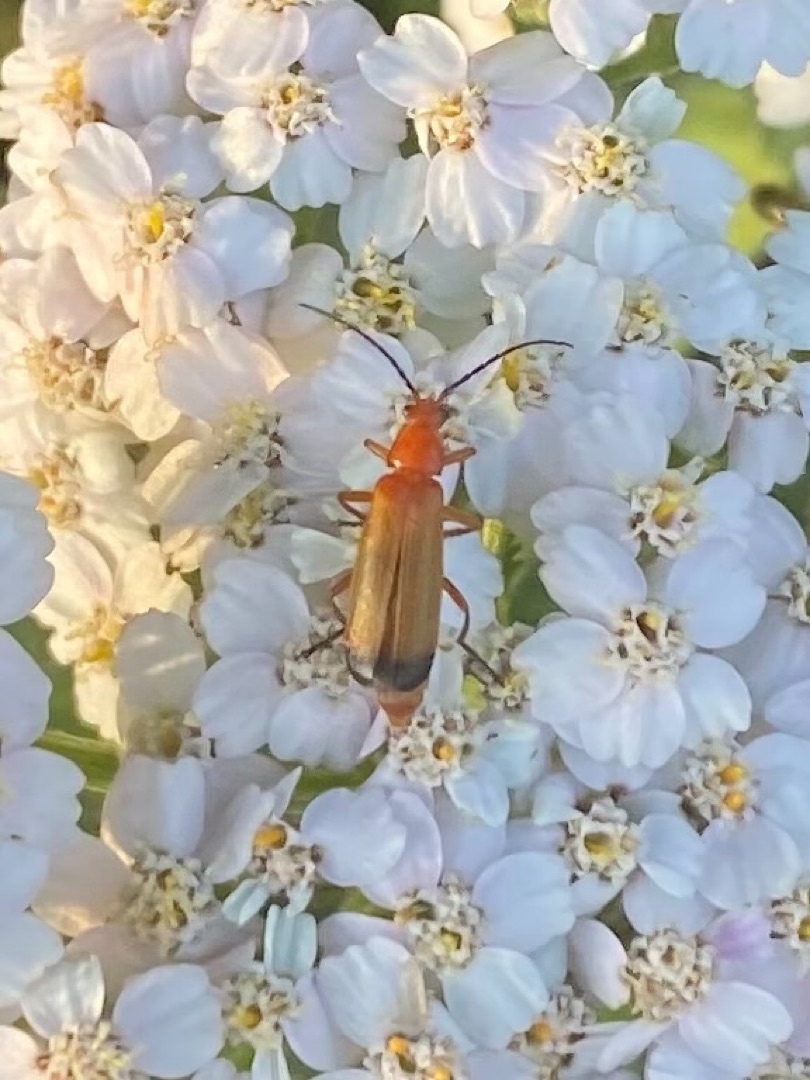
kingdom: Animalia
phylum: Arthropoda
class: Insecta
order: Coleoptera
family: Cantharidae
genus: Rhagonycha
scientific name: Rhagonycha fulva
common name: Præstebille
